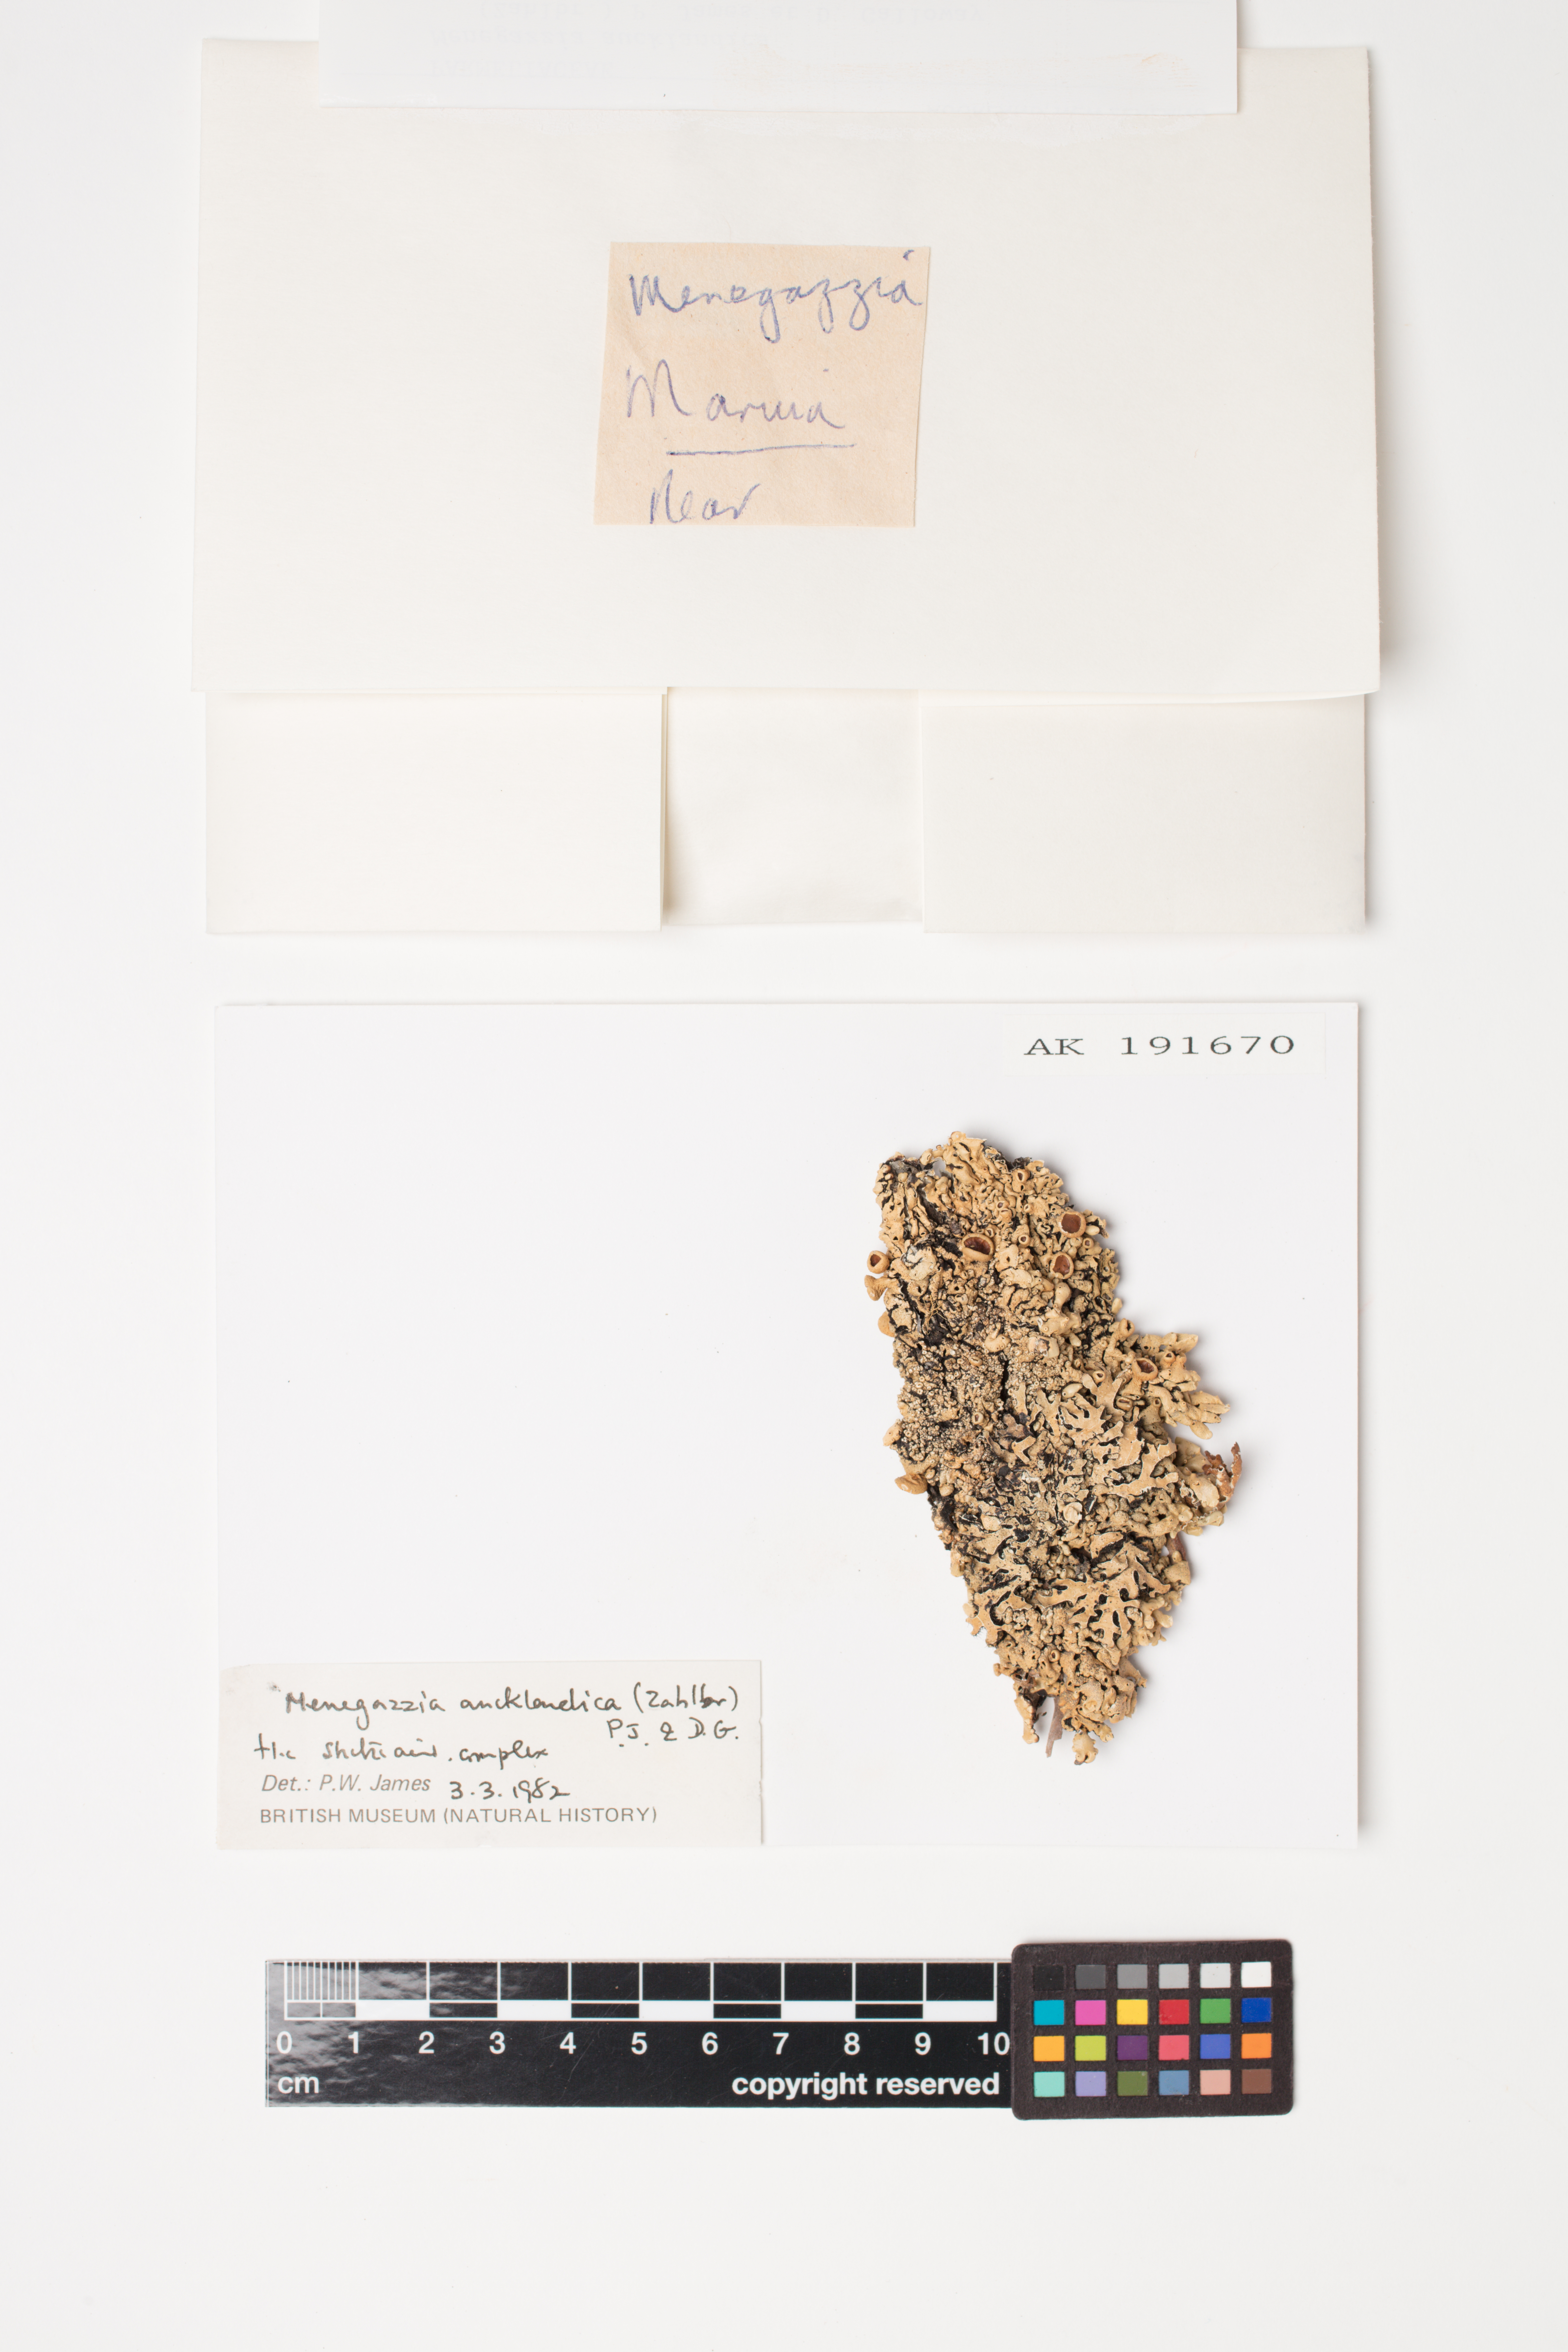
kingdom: Fungi
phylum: Ascomycota
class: Lecanoromycetes
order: Lecanorales
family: Parmeliaceae
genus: Menegazzia
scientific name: Menegazzia aucklandica
